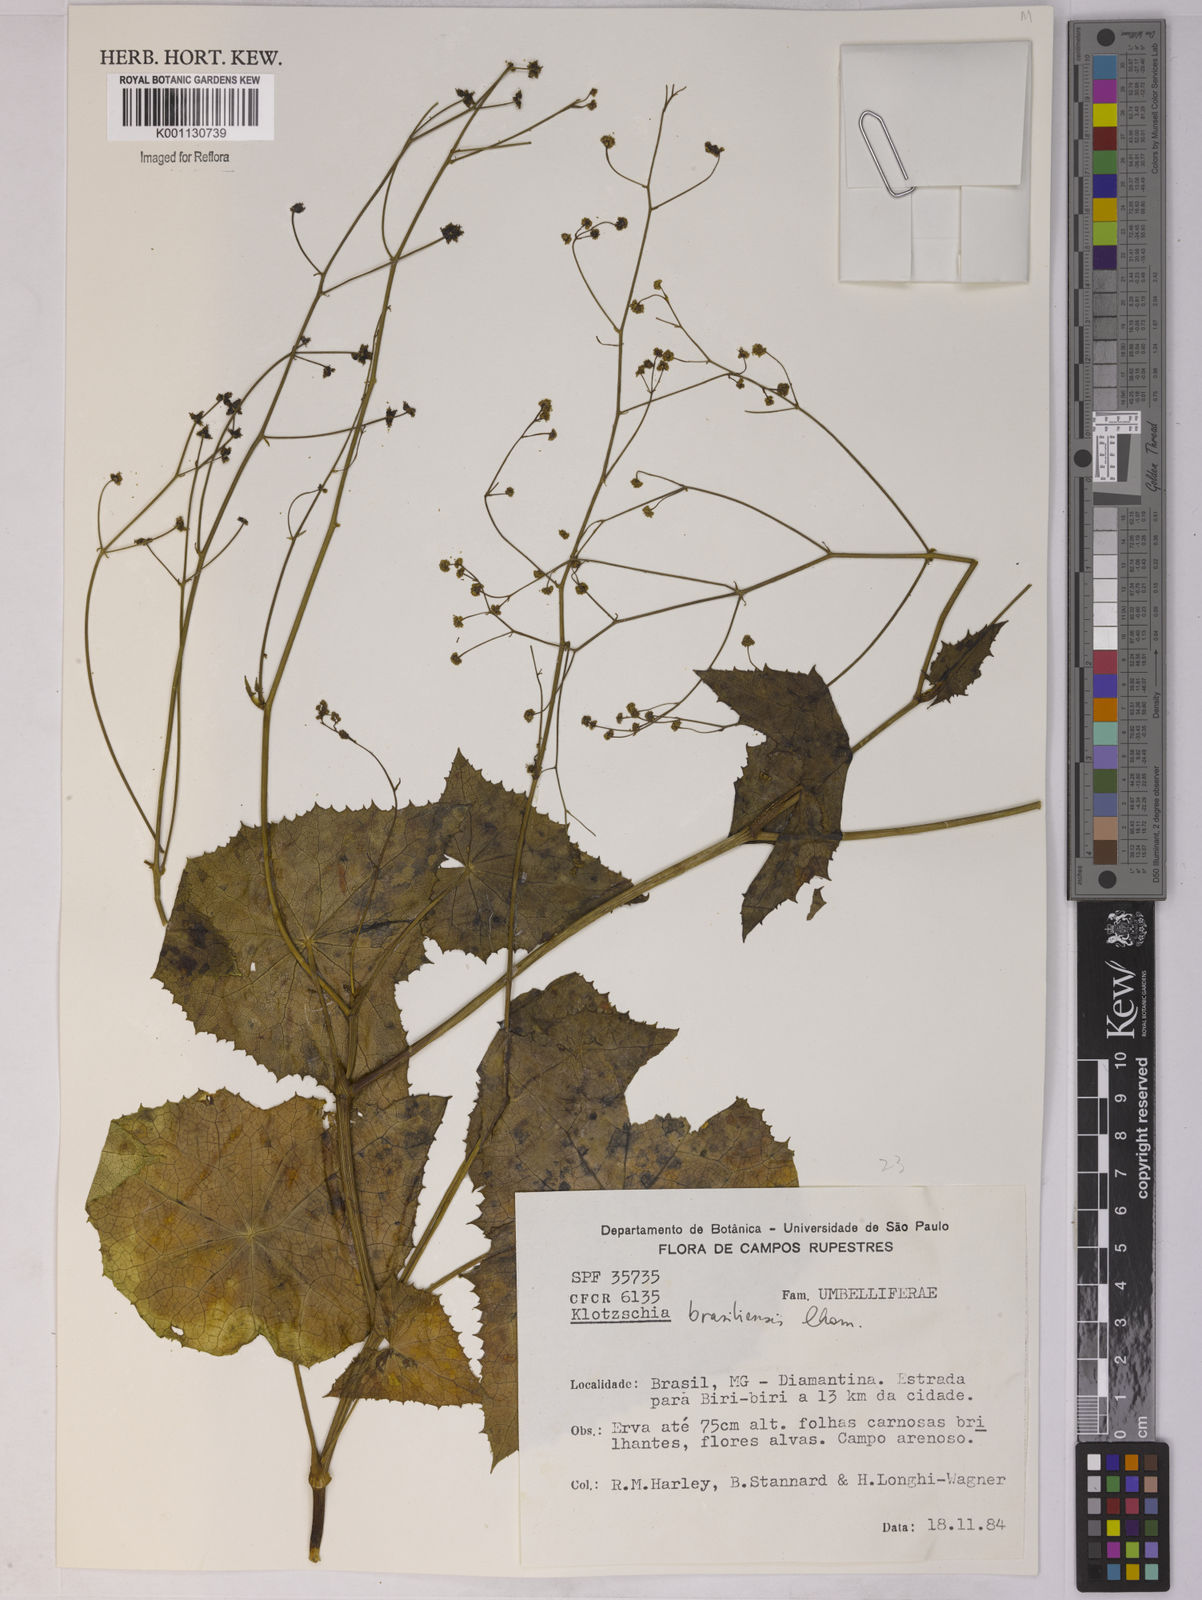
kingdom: Plantae
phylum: Tracheophyta
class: Magnoliopsida
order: Apiales
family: Apiaceae
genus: Klotzschia
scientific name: Klotzschia brasiliensis
